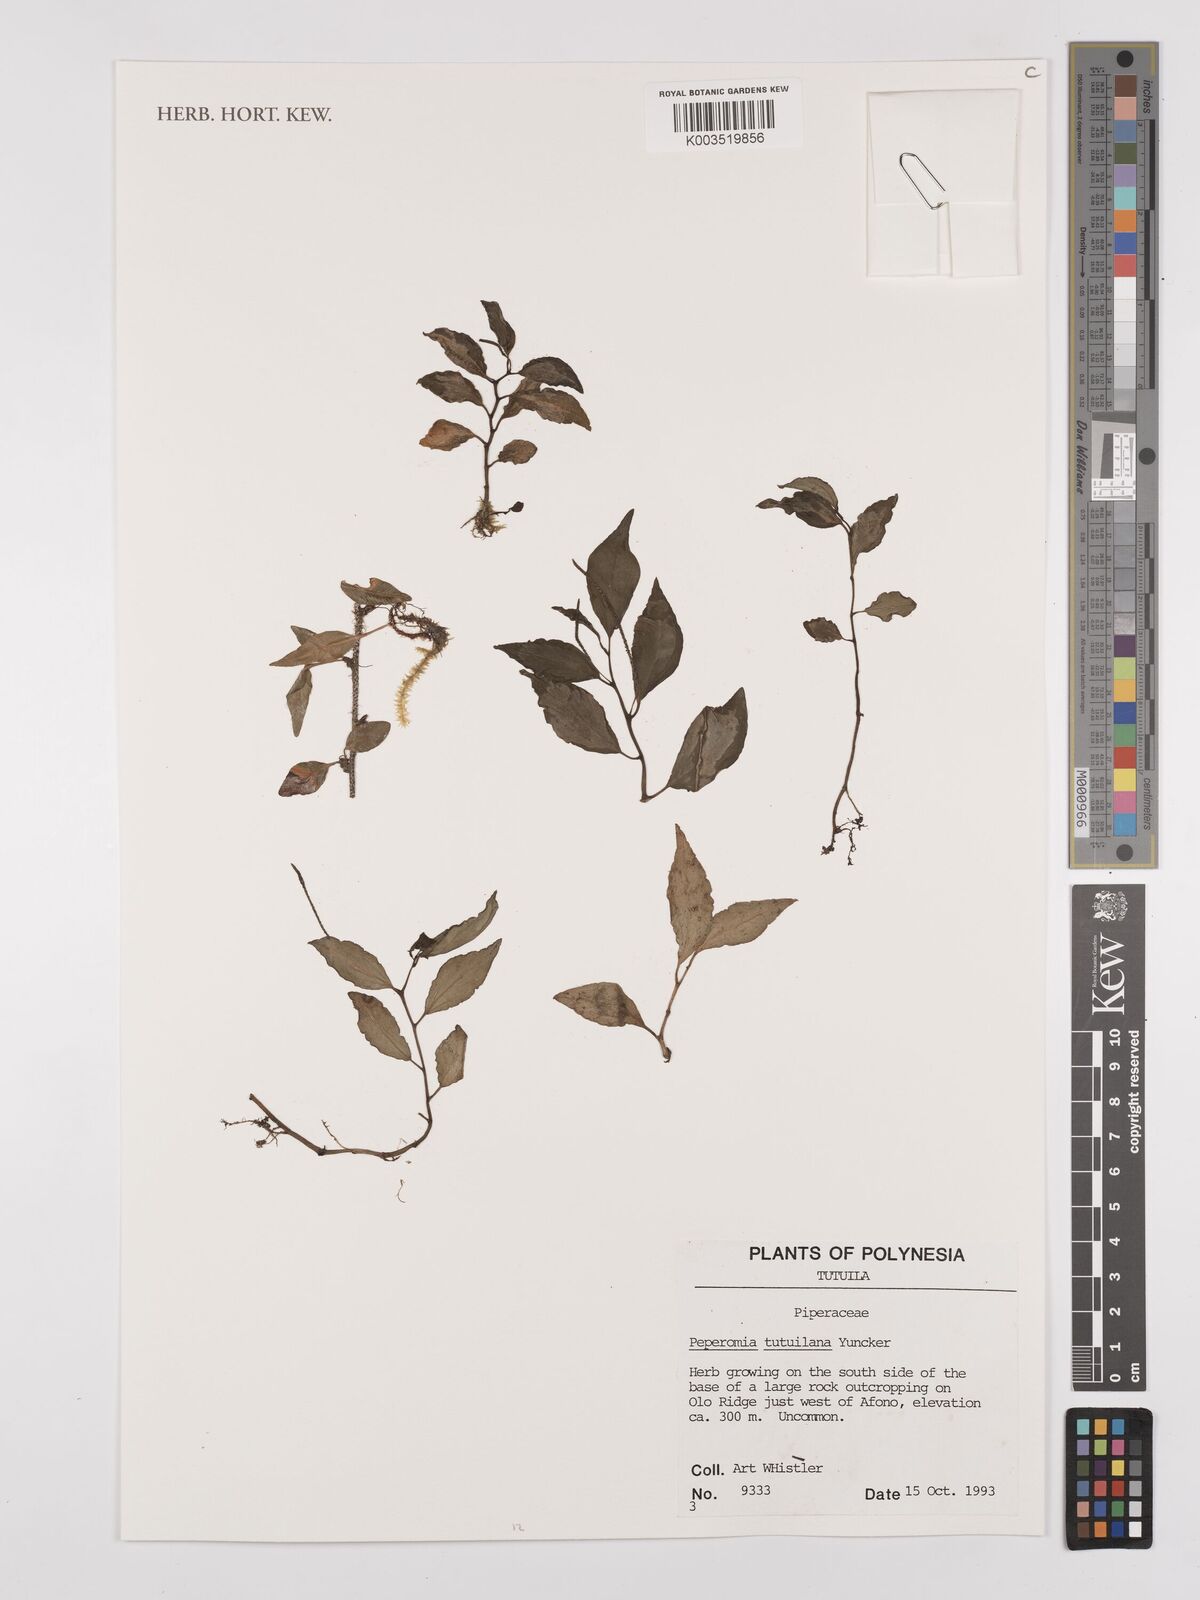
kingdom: Plantae
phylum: Tracheophyta
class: Magnoliopsida
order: Piperales
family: Piperaceae
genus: Peperomia
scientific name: Peperomia tutuilana
